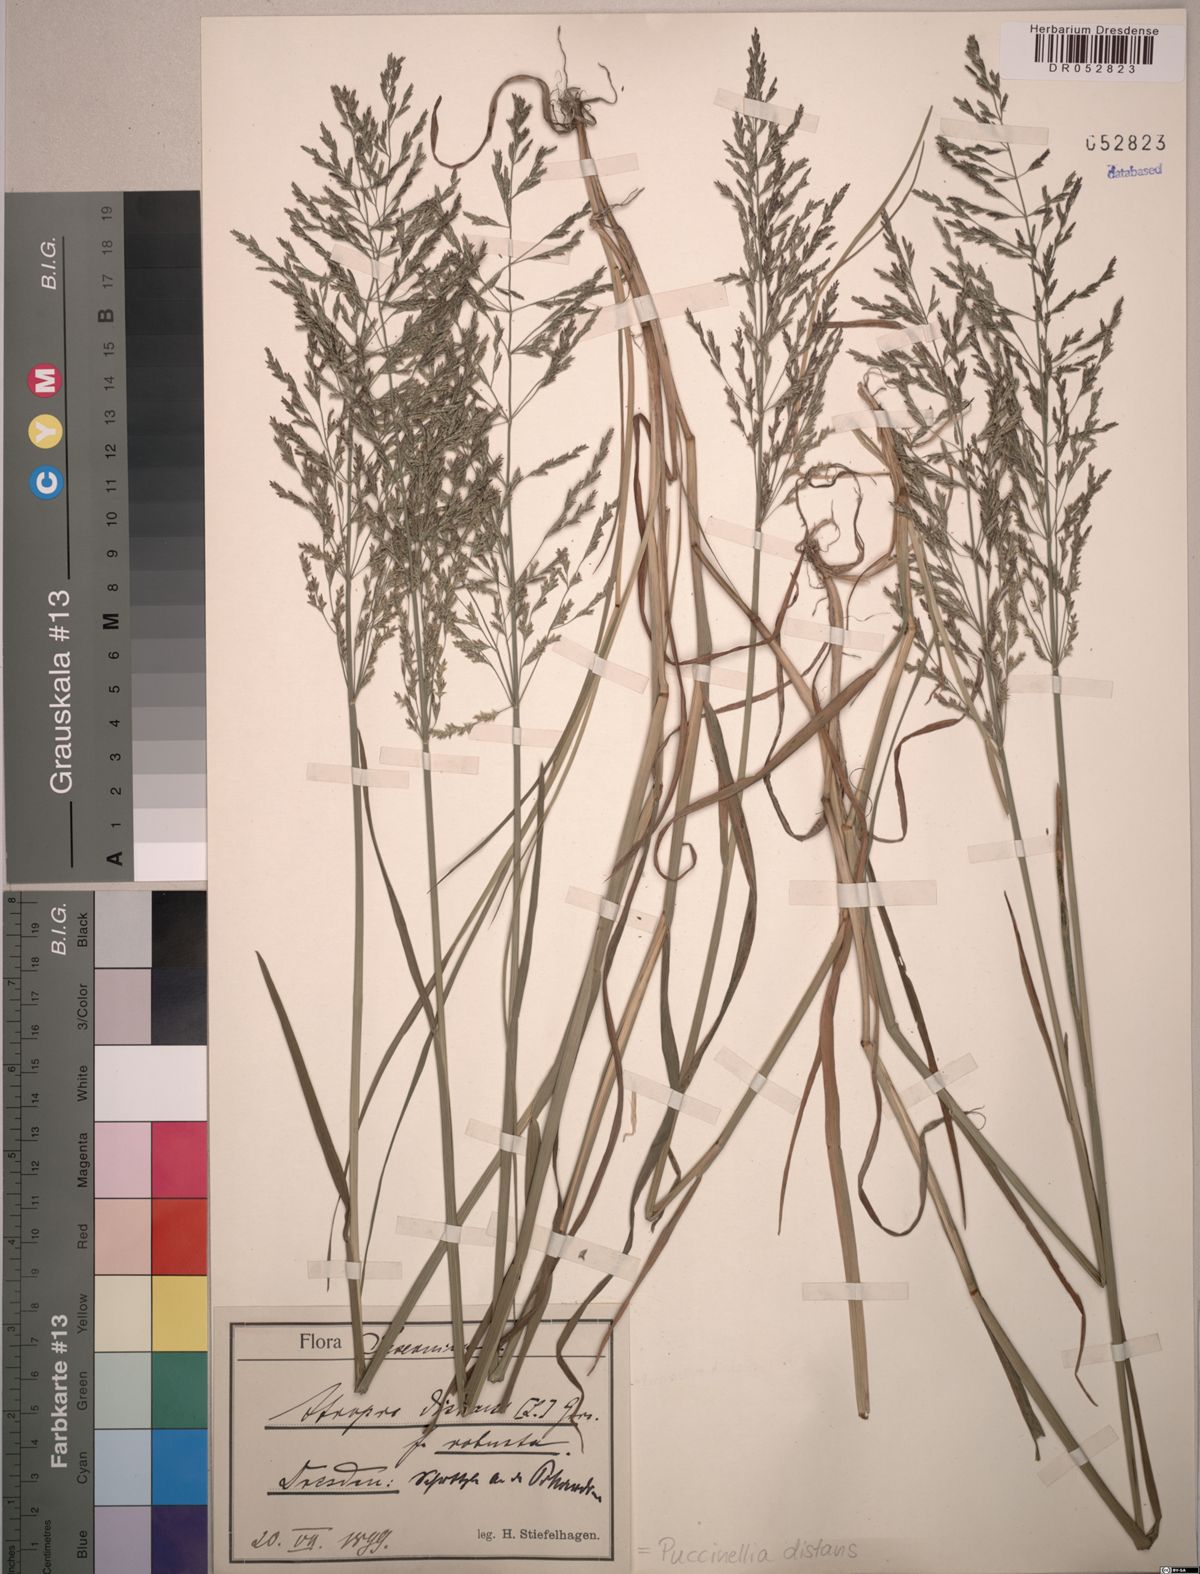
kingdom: Plantae
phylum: Tracheophyta
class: Liliopsida
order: Poales
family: Poaceae
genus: Puccinellia
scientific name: Puccinellia distans
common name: Weeping alkaligrass
